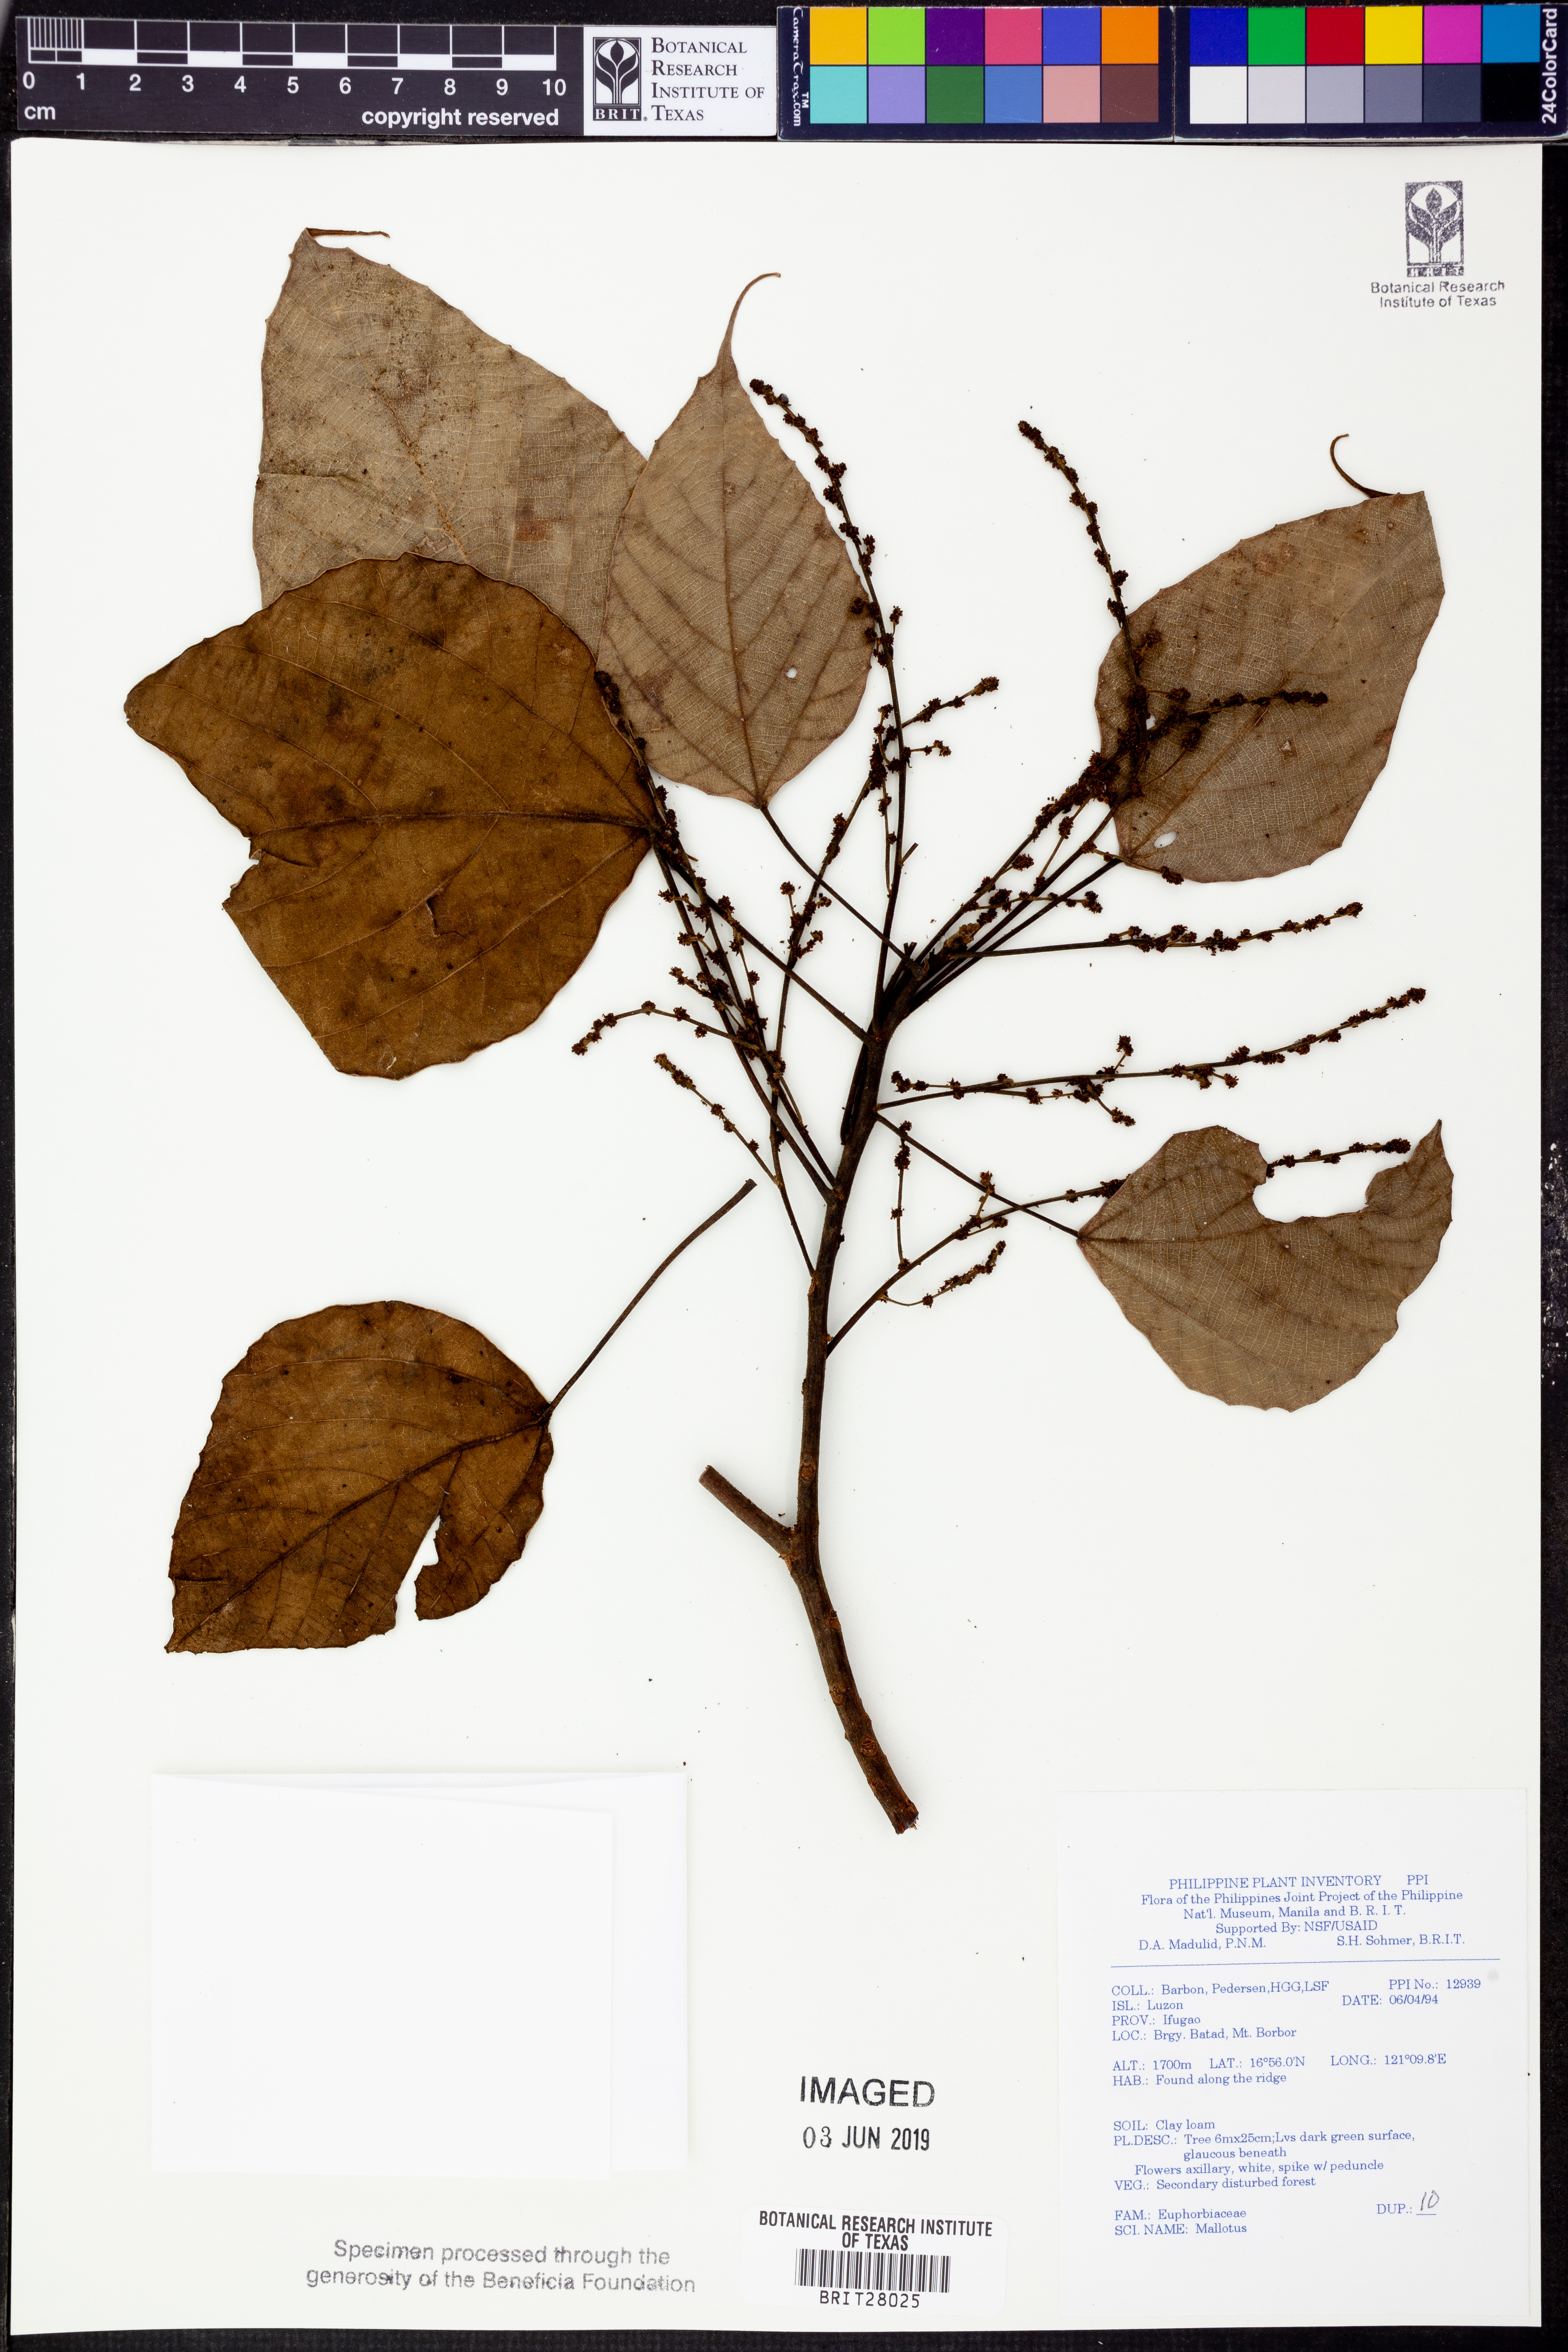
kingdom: Plantae
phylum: Tracheophyta
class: Magnoliopsida
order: Malpighiales
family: Euphorbiaceae
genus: Mallotus
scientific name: Mallotus
